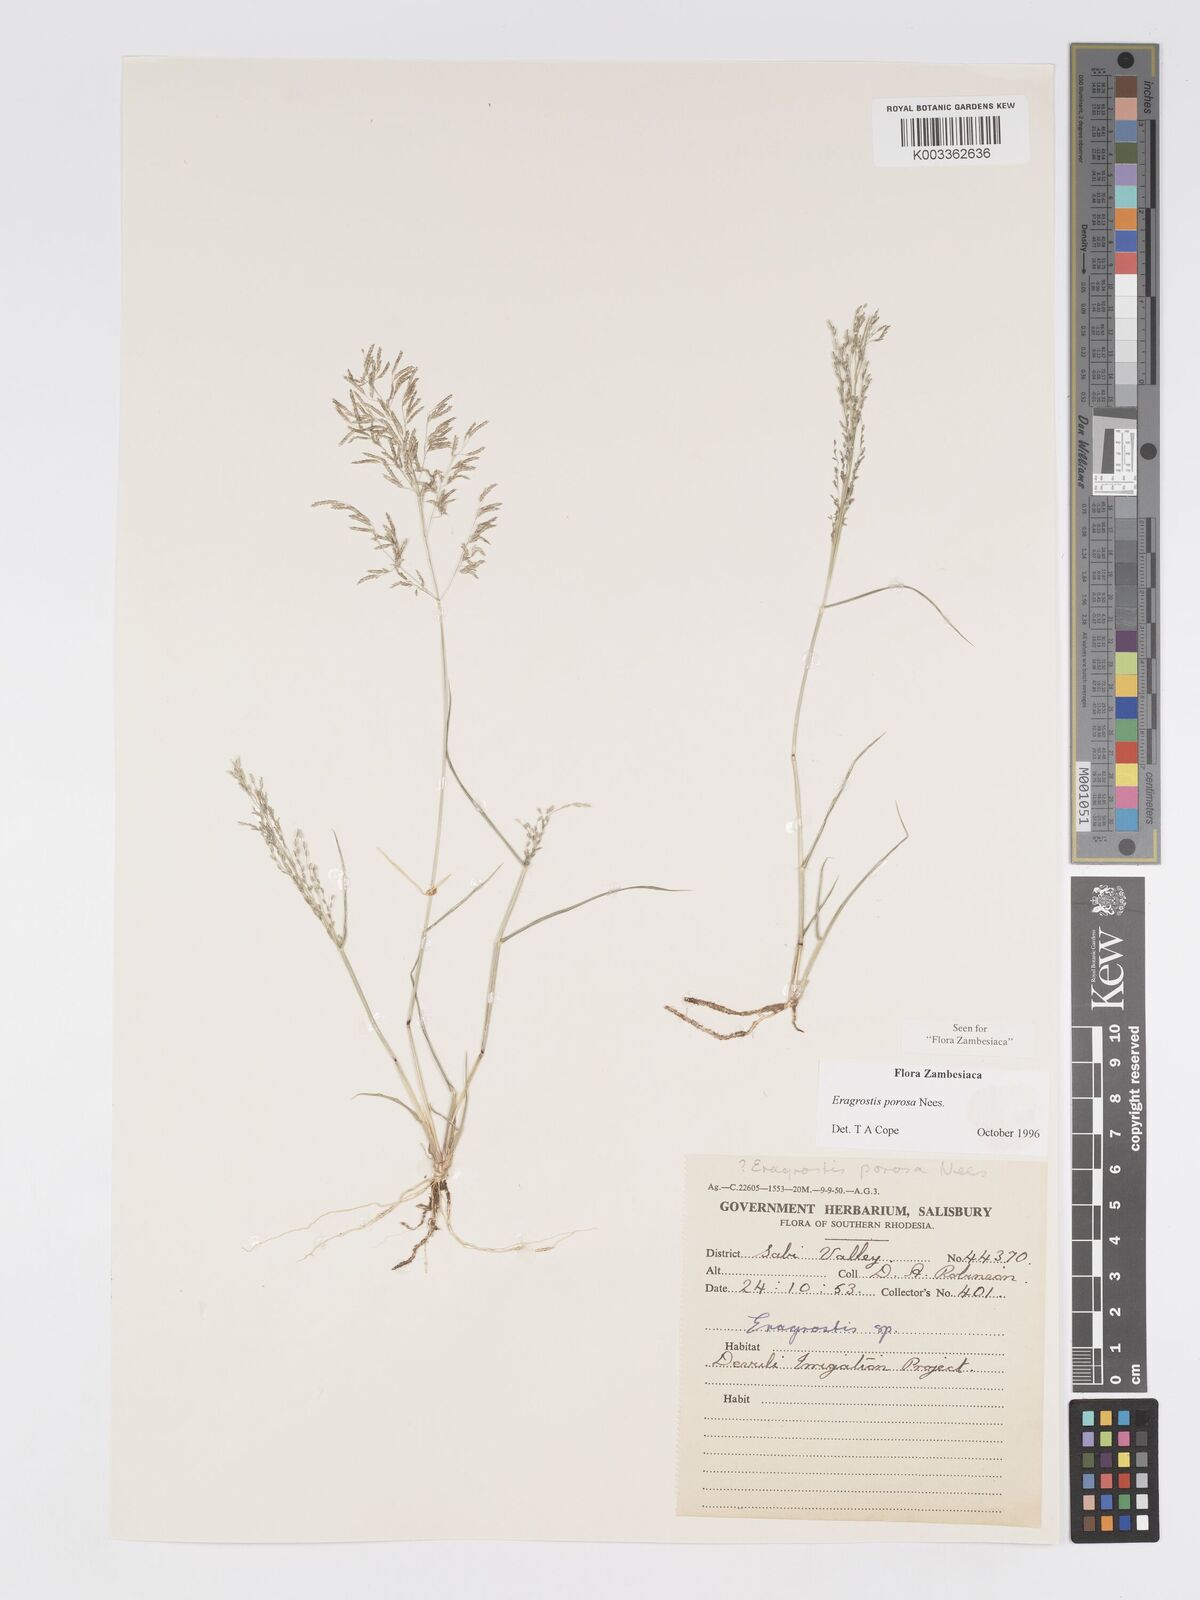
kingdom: Plantae
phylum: Tracheophyta
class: Liliopsida
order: Poales
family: Poaceae
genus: Eragrostis
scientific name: Eragrostis porosa
